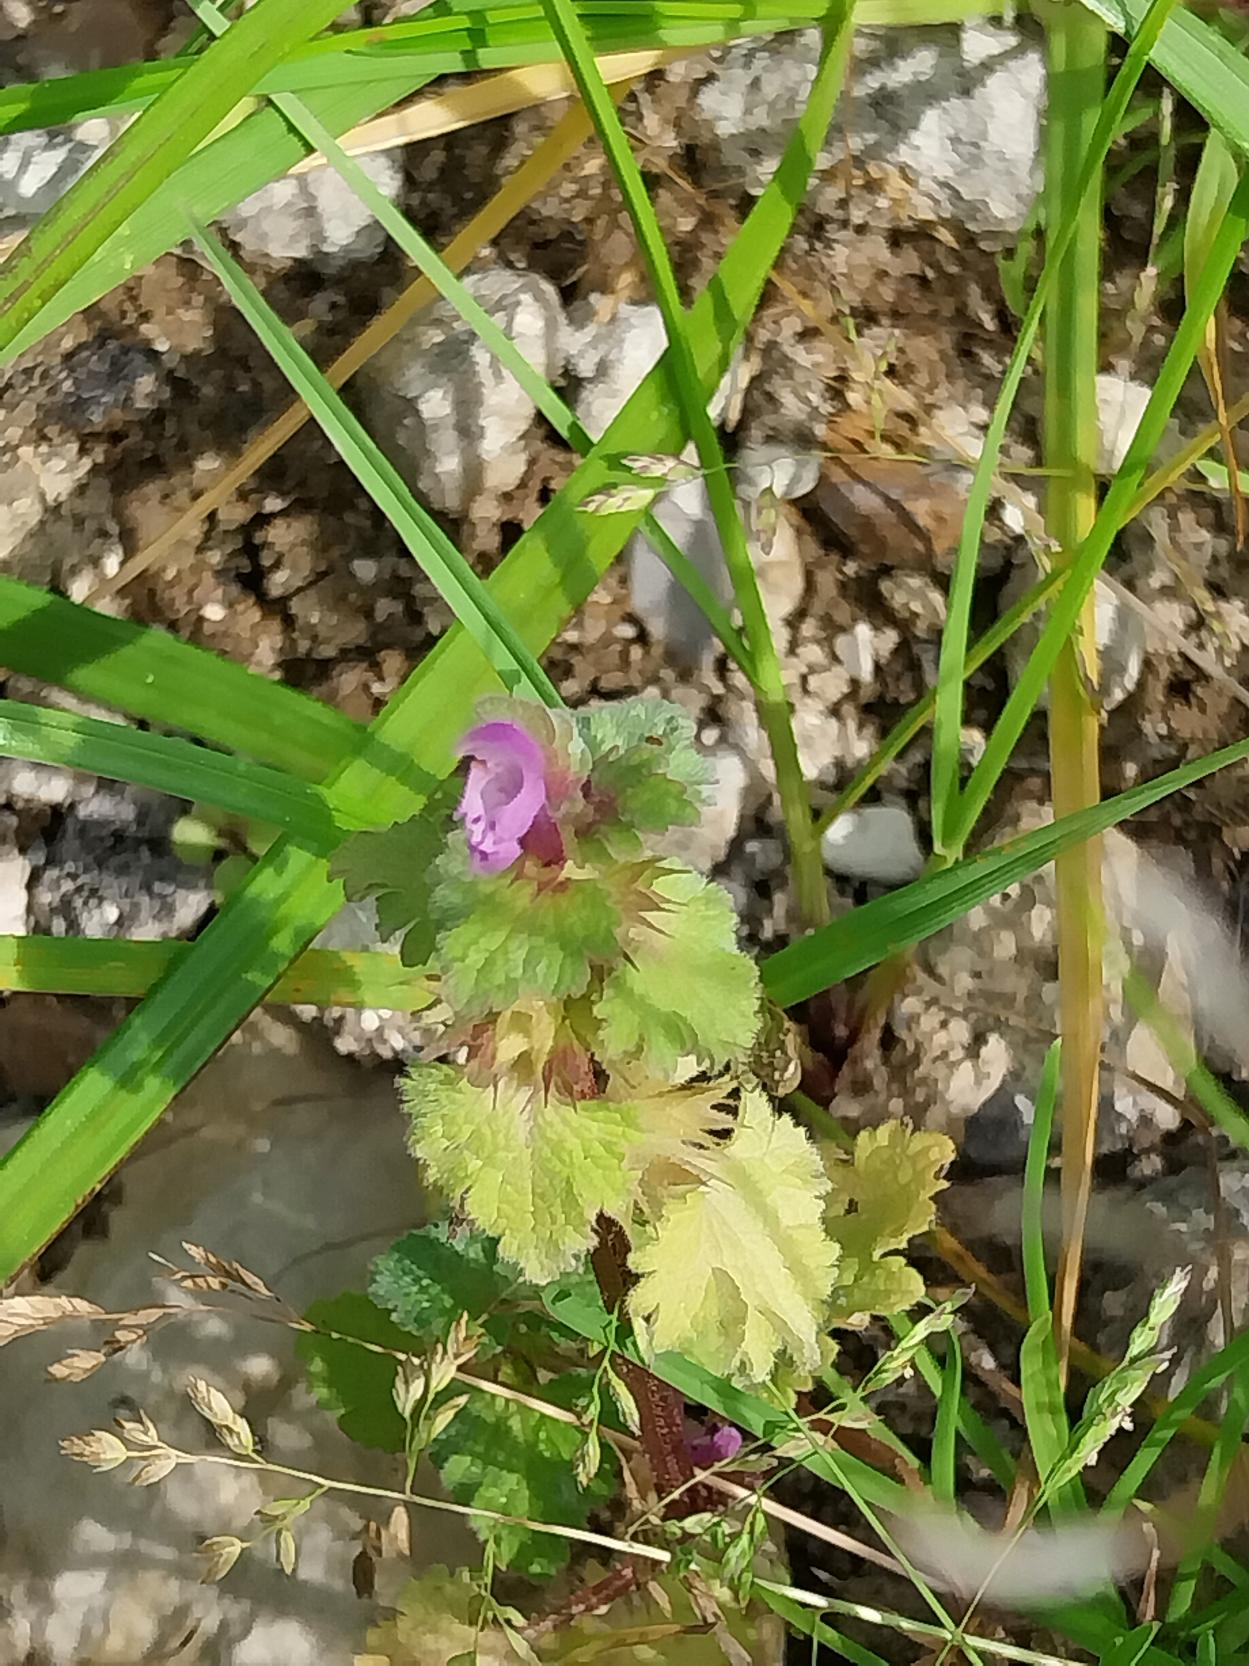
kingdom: Plantae
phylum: Tracheophyta
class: Magnoliopsida
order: Lamiales
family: Lamiaceae
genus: Lamium
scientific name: Lamium hybridum
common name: Fliget tvetand
